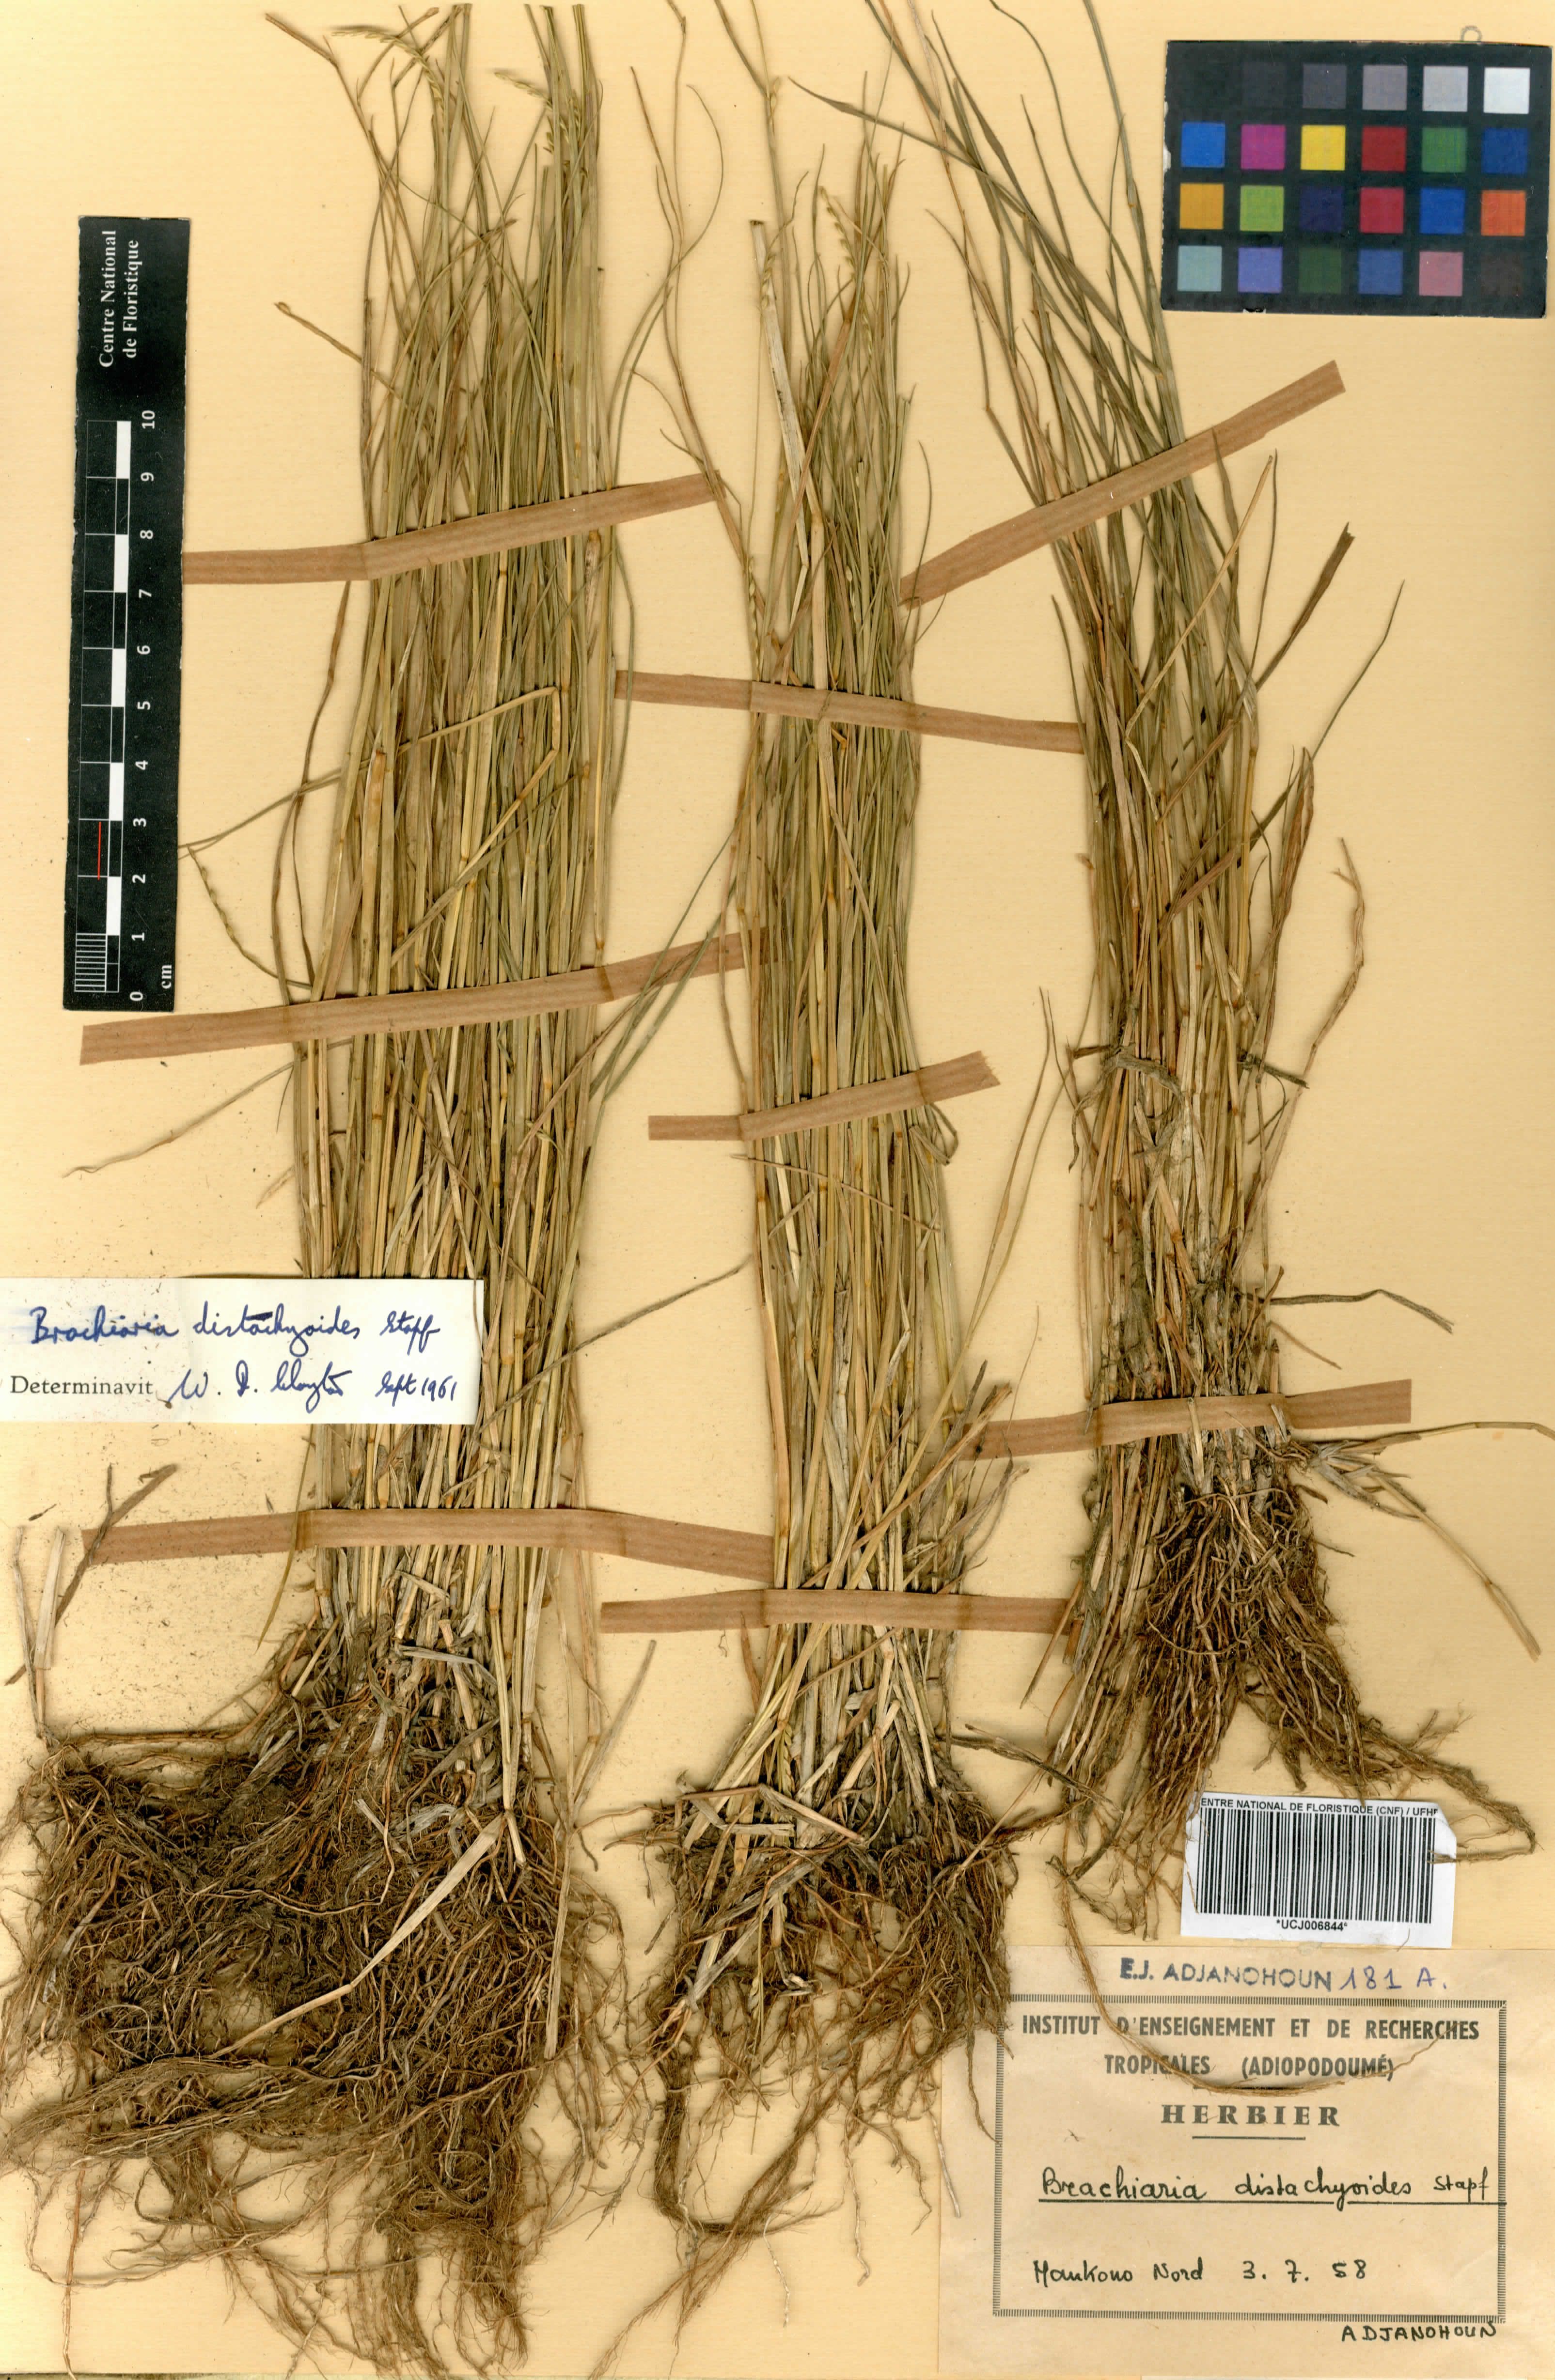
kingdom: Plantae
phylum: Tracheophyta
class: Liliopsida
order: Poales
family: Poaceae
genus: Urochloa
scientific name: Urochloa villosa
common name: Hairy signalgrass
